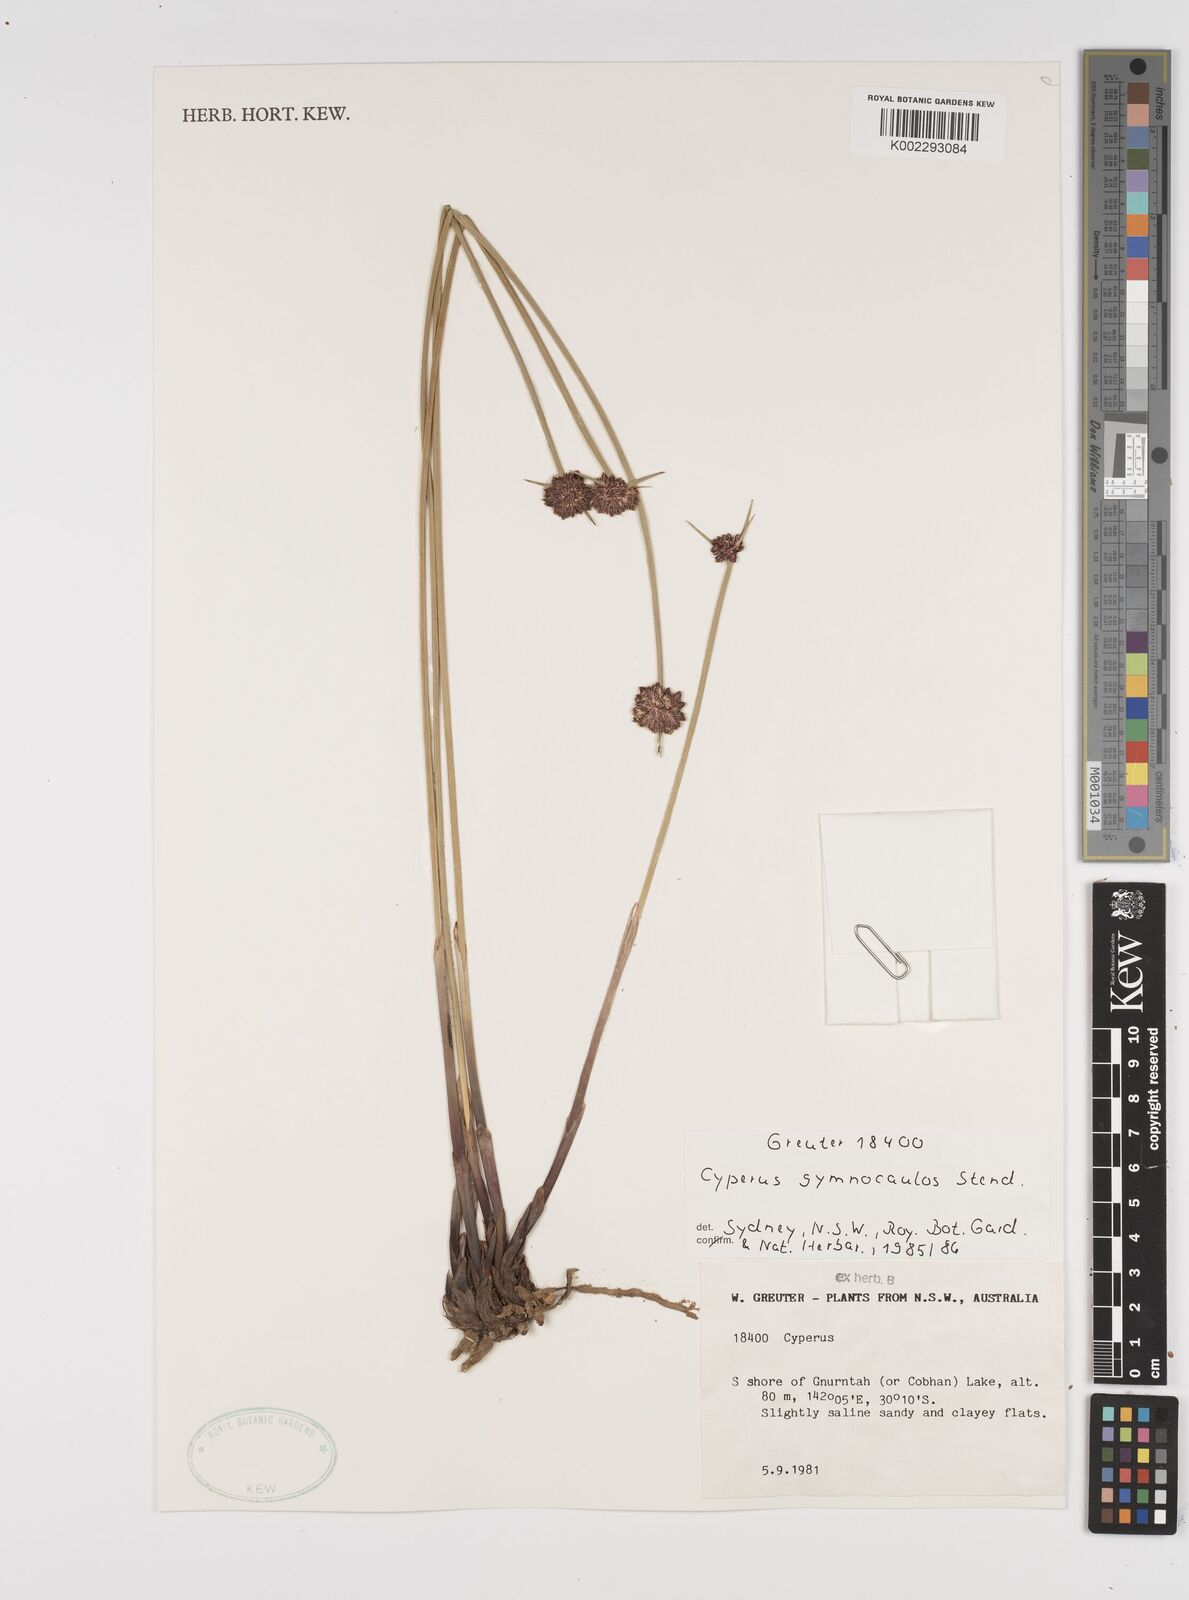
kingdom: Plantae
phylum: Tracheophyta
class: Liliopsida
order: Poales
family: Cyperaceae
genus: Cyperus
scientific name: Cyperus vaginatus
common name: Stiff-leaved flat-sedge
